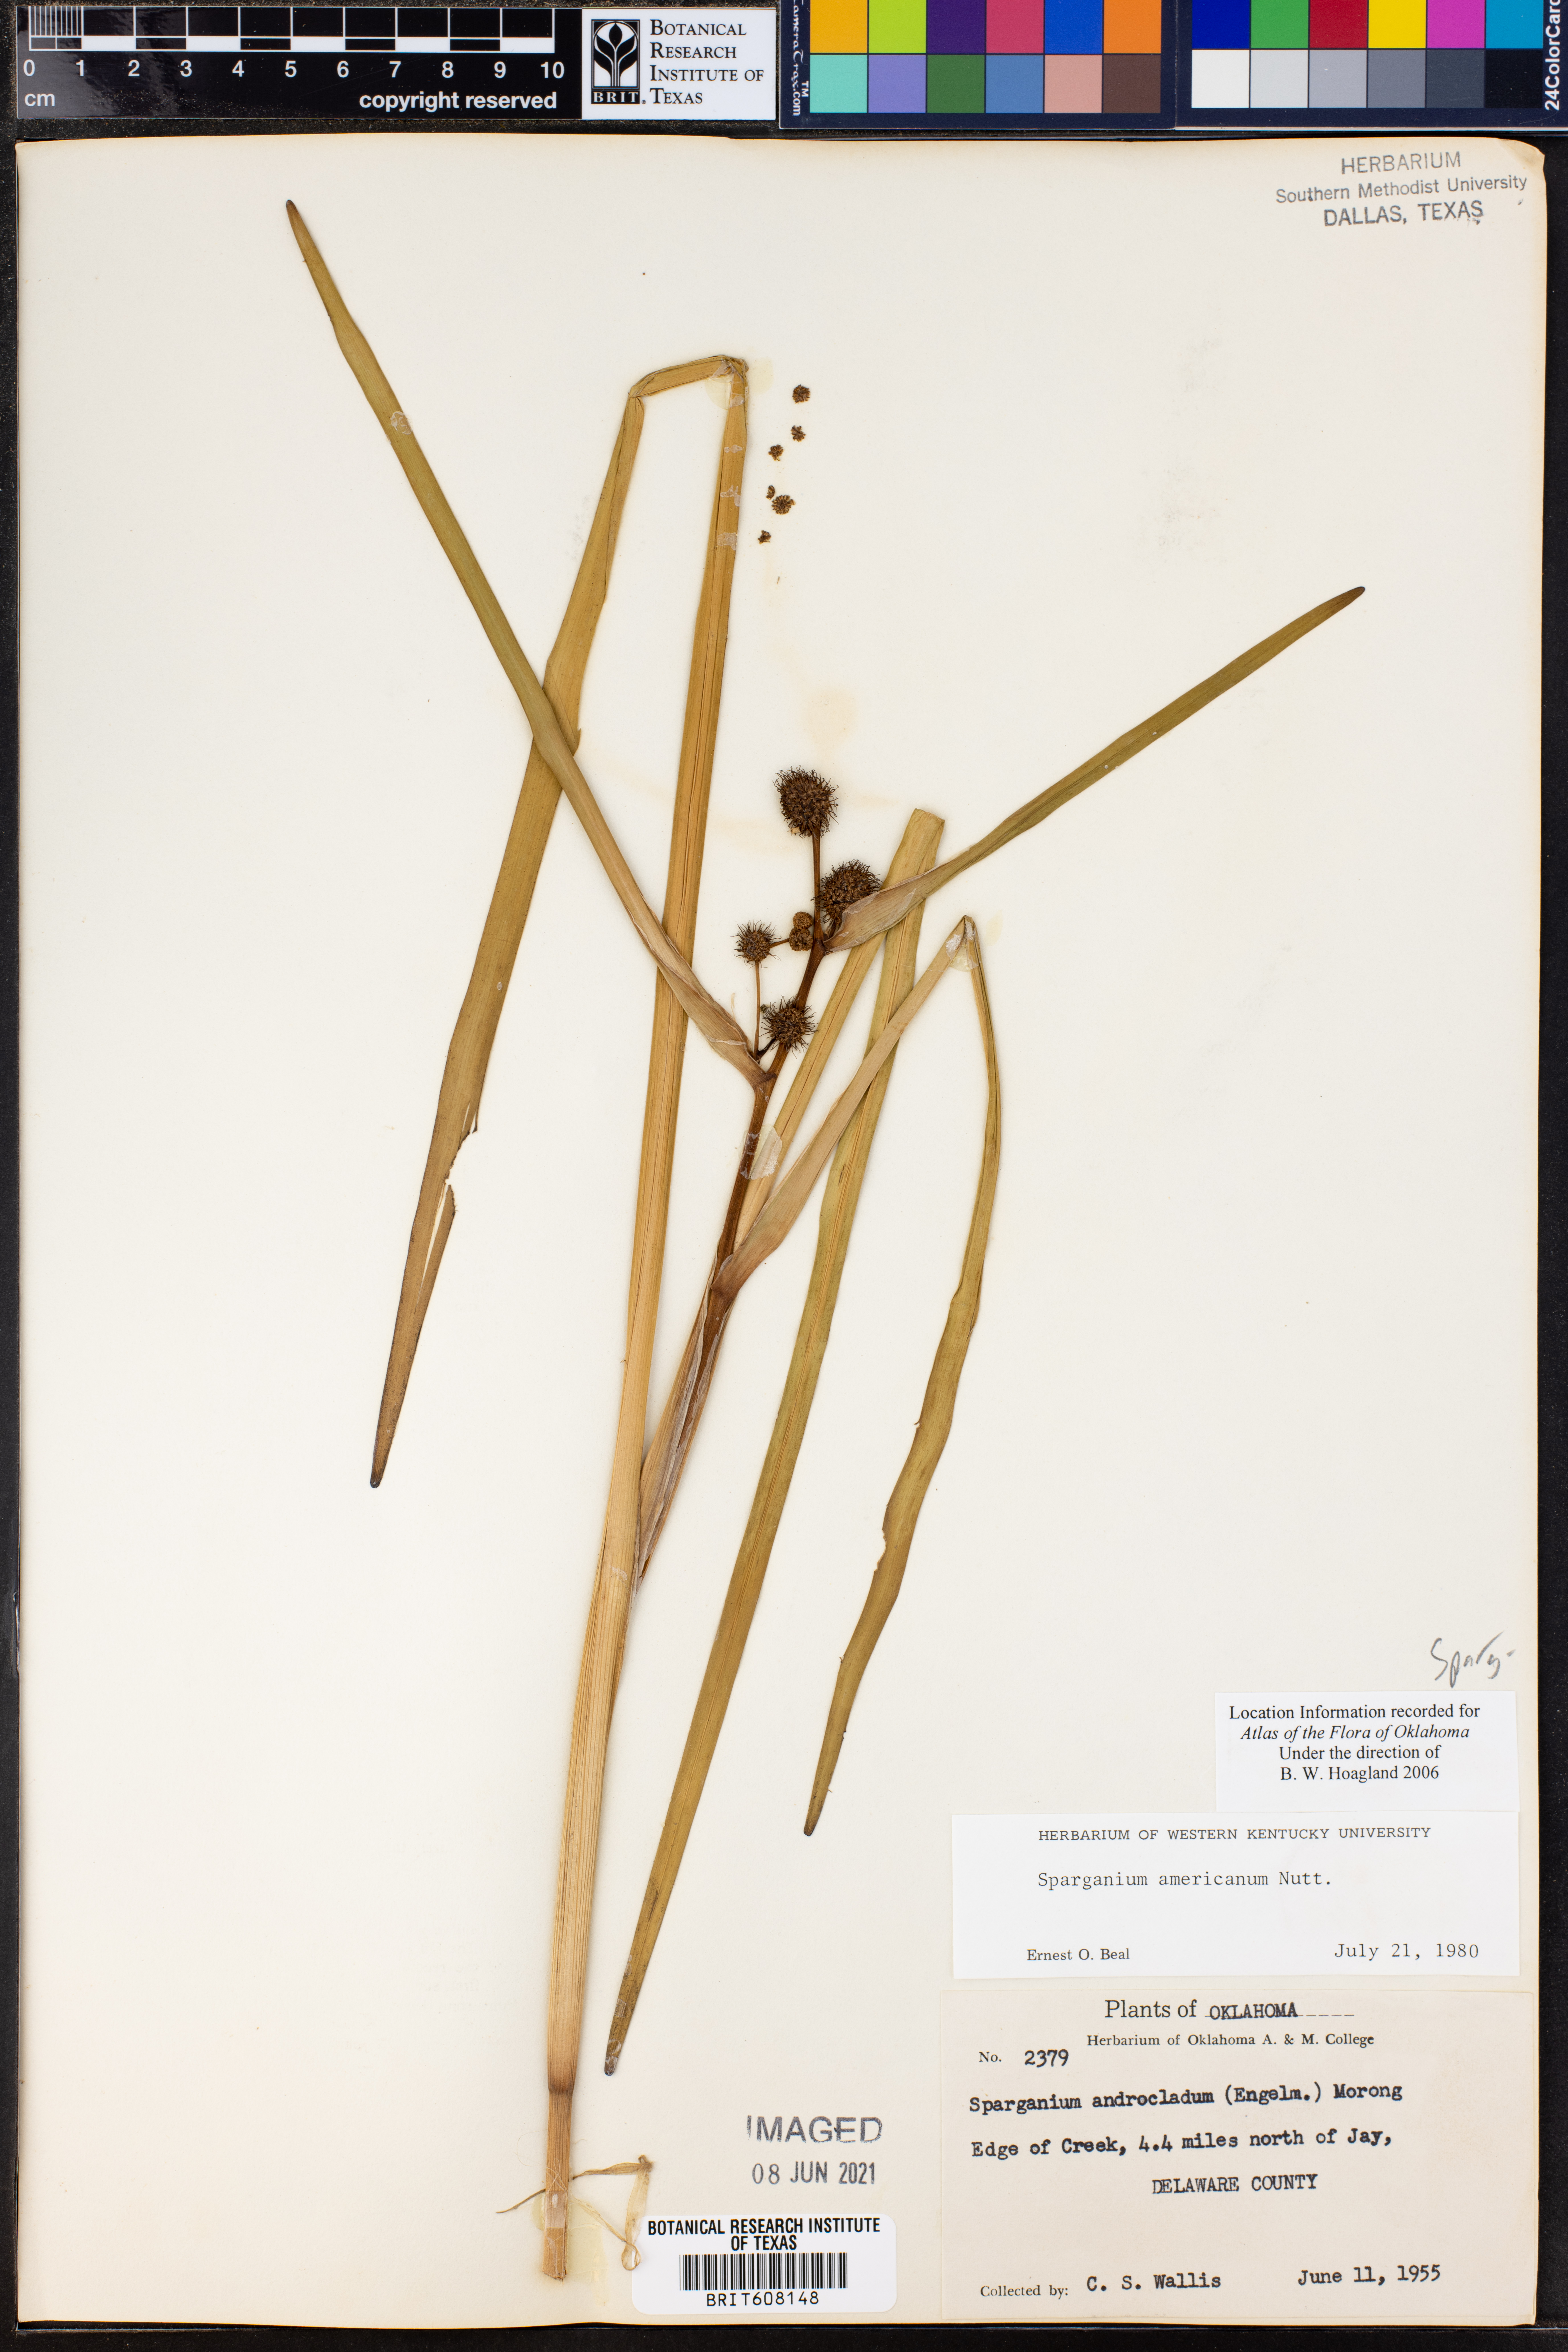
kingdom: Plantae
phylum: Tracheophyta
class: Liliopsida
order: Poales
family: Typhaceae
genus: Sparganium
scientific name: Sparganium americanum
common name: American burreed
